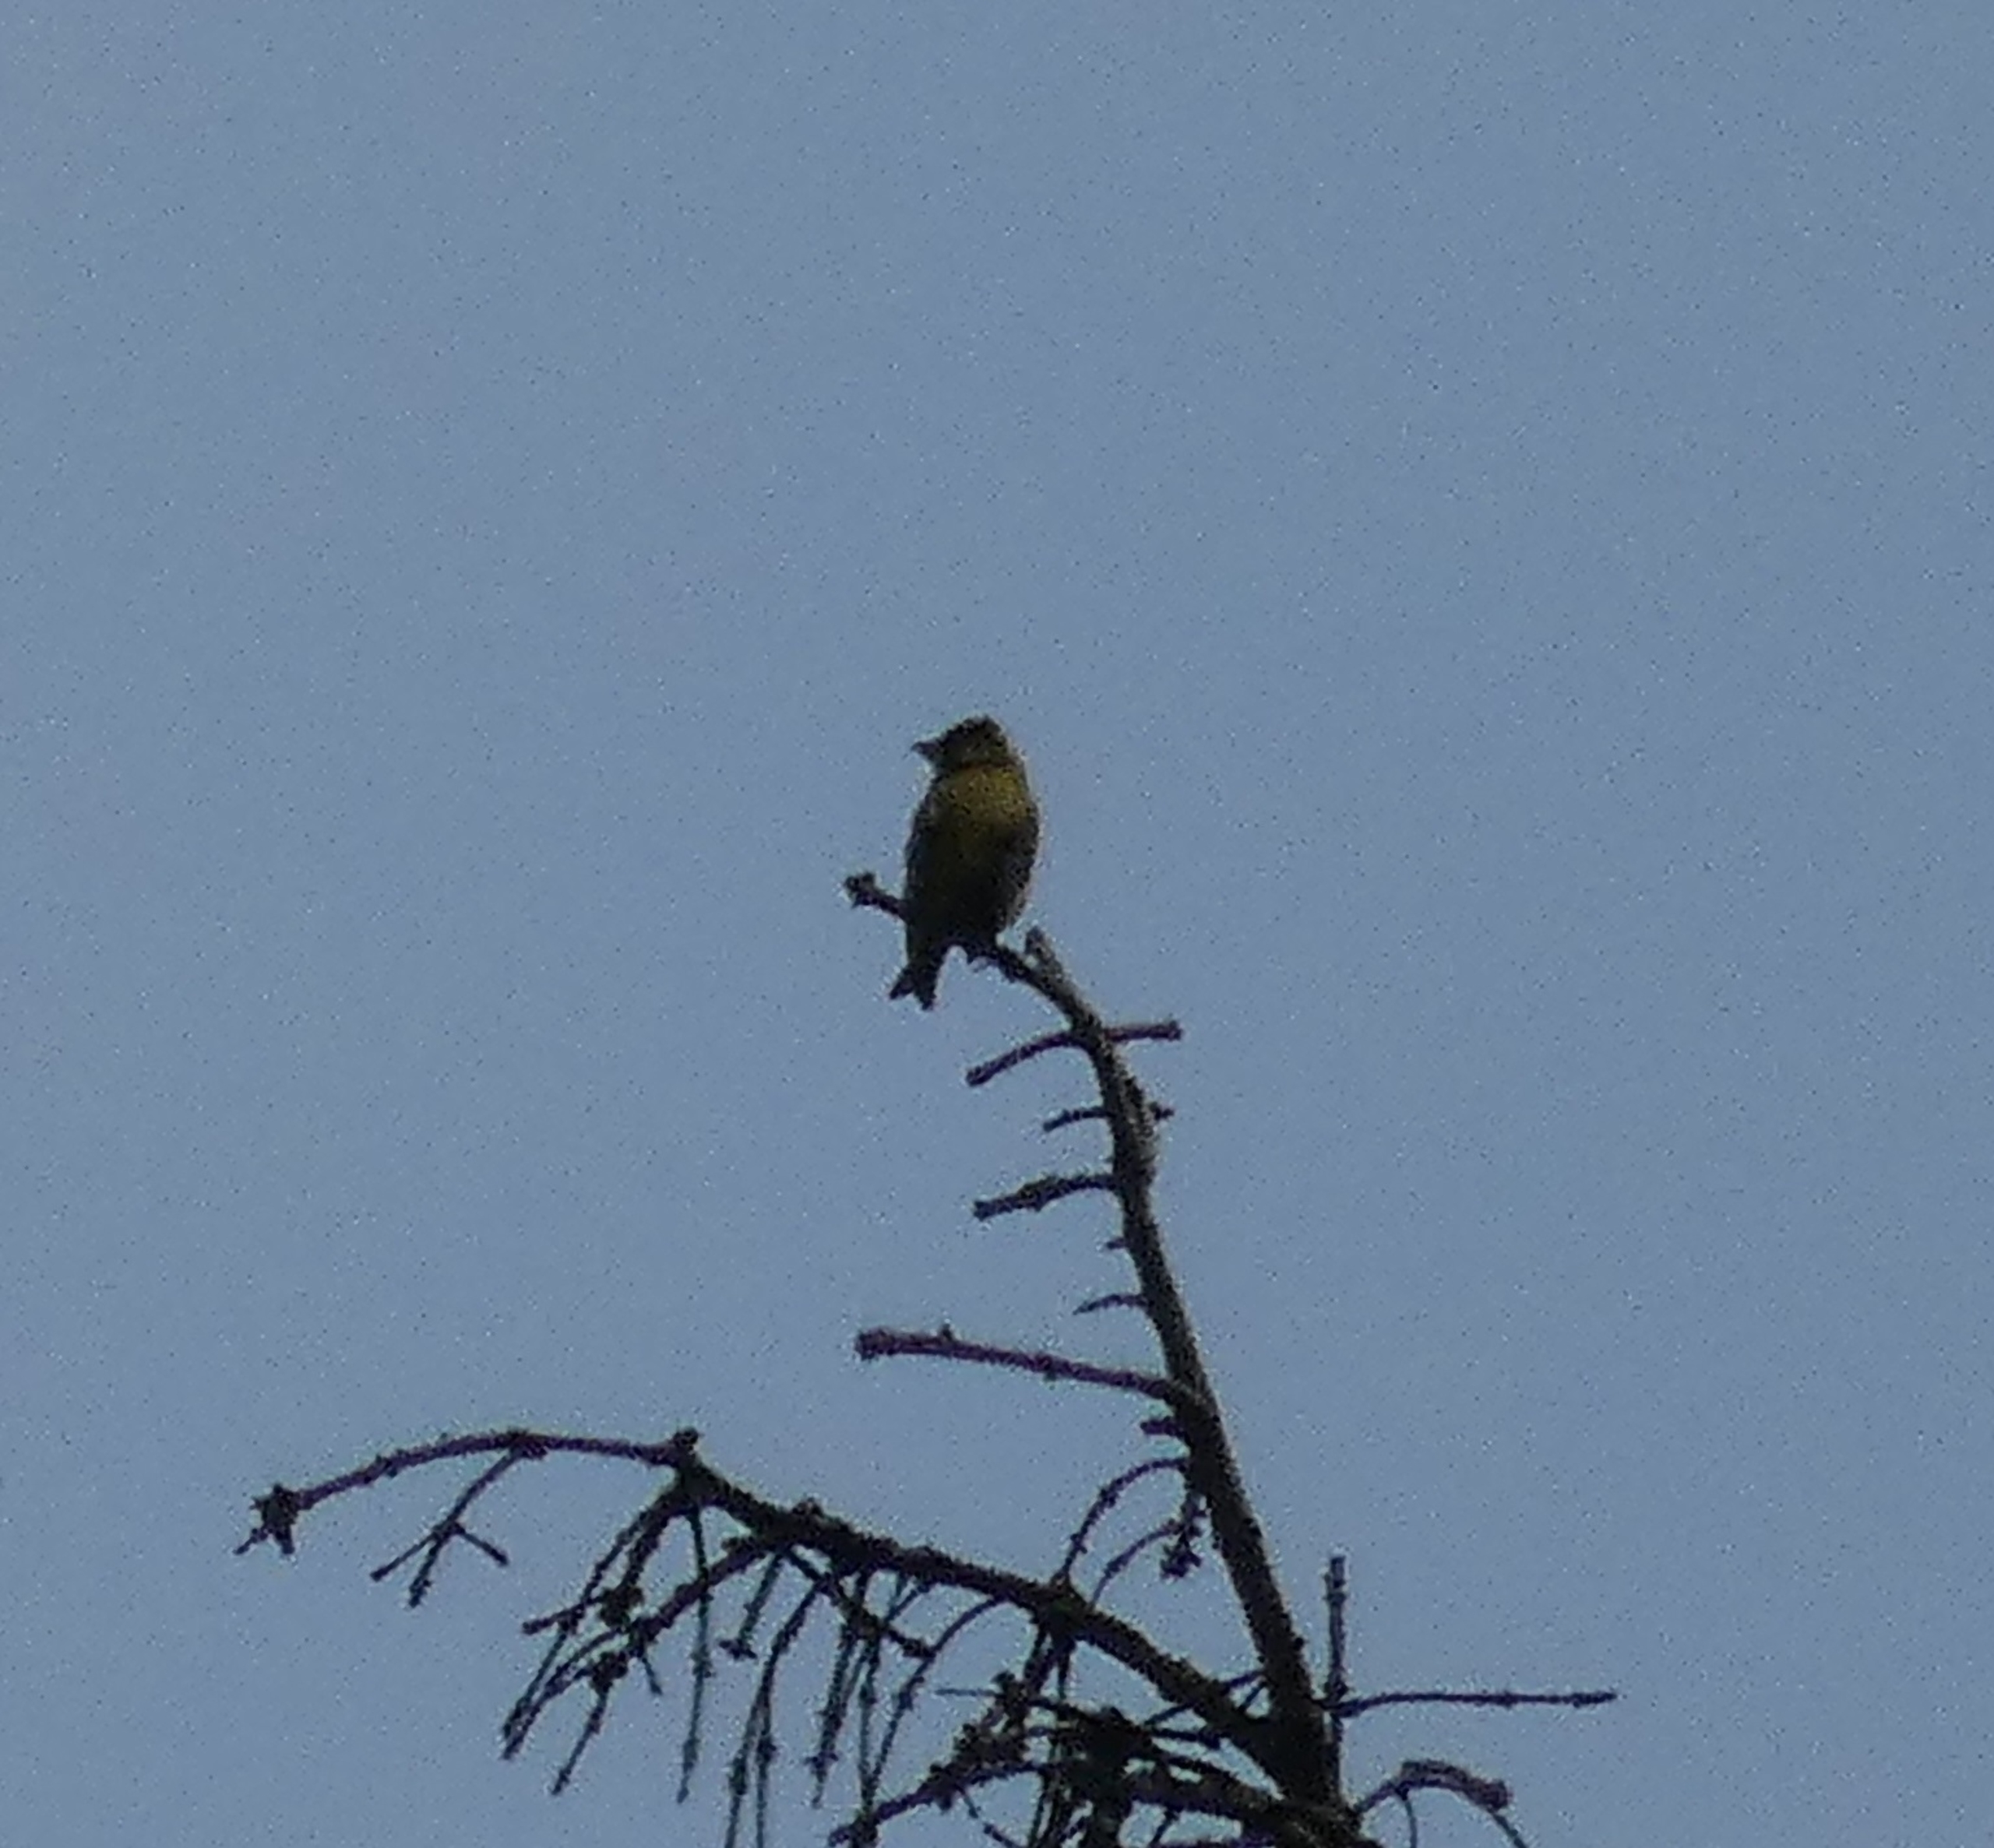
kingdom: Plantae
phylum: Tracheophyta
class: Liliopsida
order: Poales
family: Poaceae
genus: Chloris
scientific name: Chloris chloris
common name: Grønirisk
